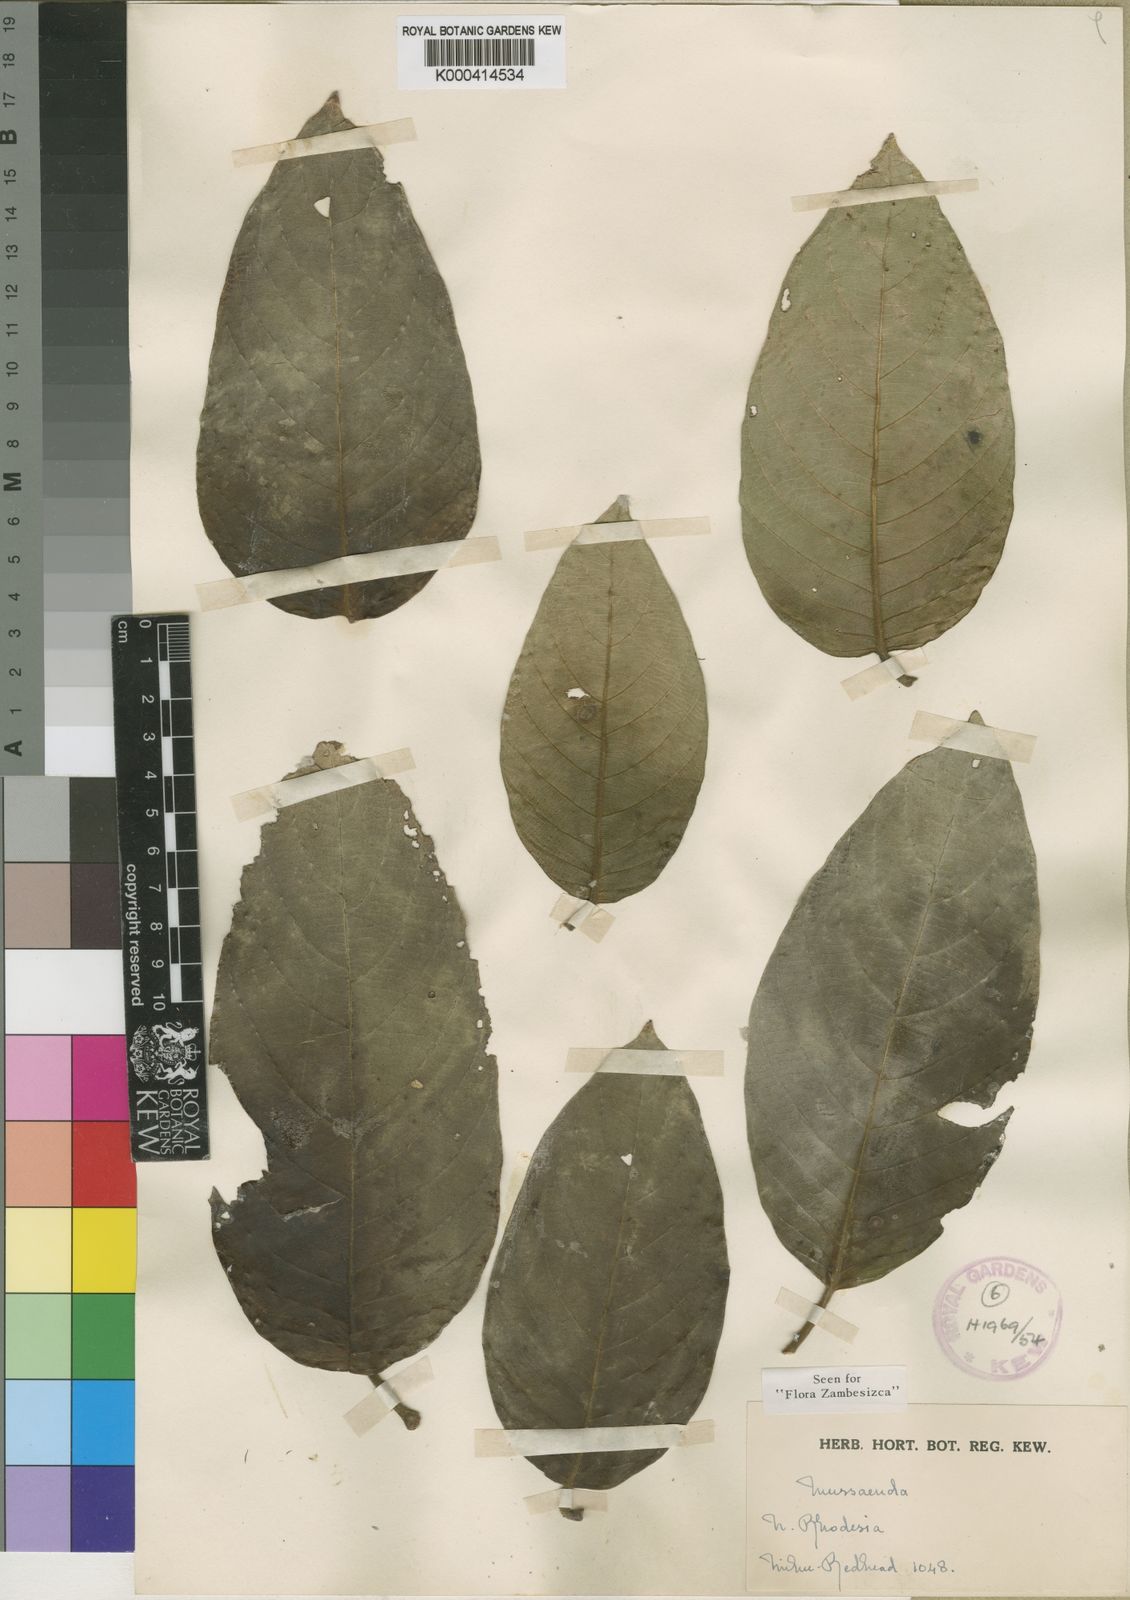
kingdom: Plantae
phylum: Tracheophyta
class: Magnoliopsida
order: Gentianales
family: Rubiaceae
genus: Mussaenda
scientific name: Mussaenda rivularis
